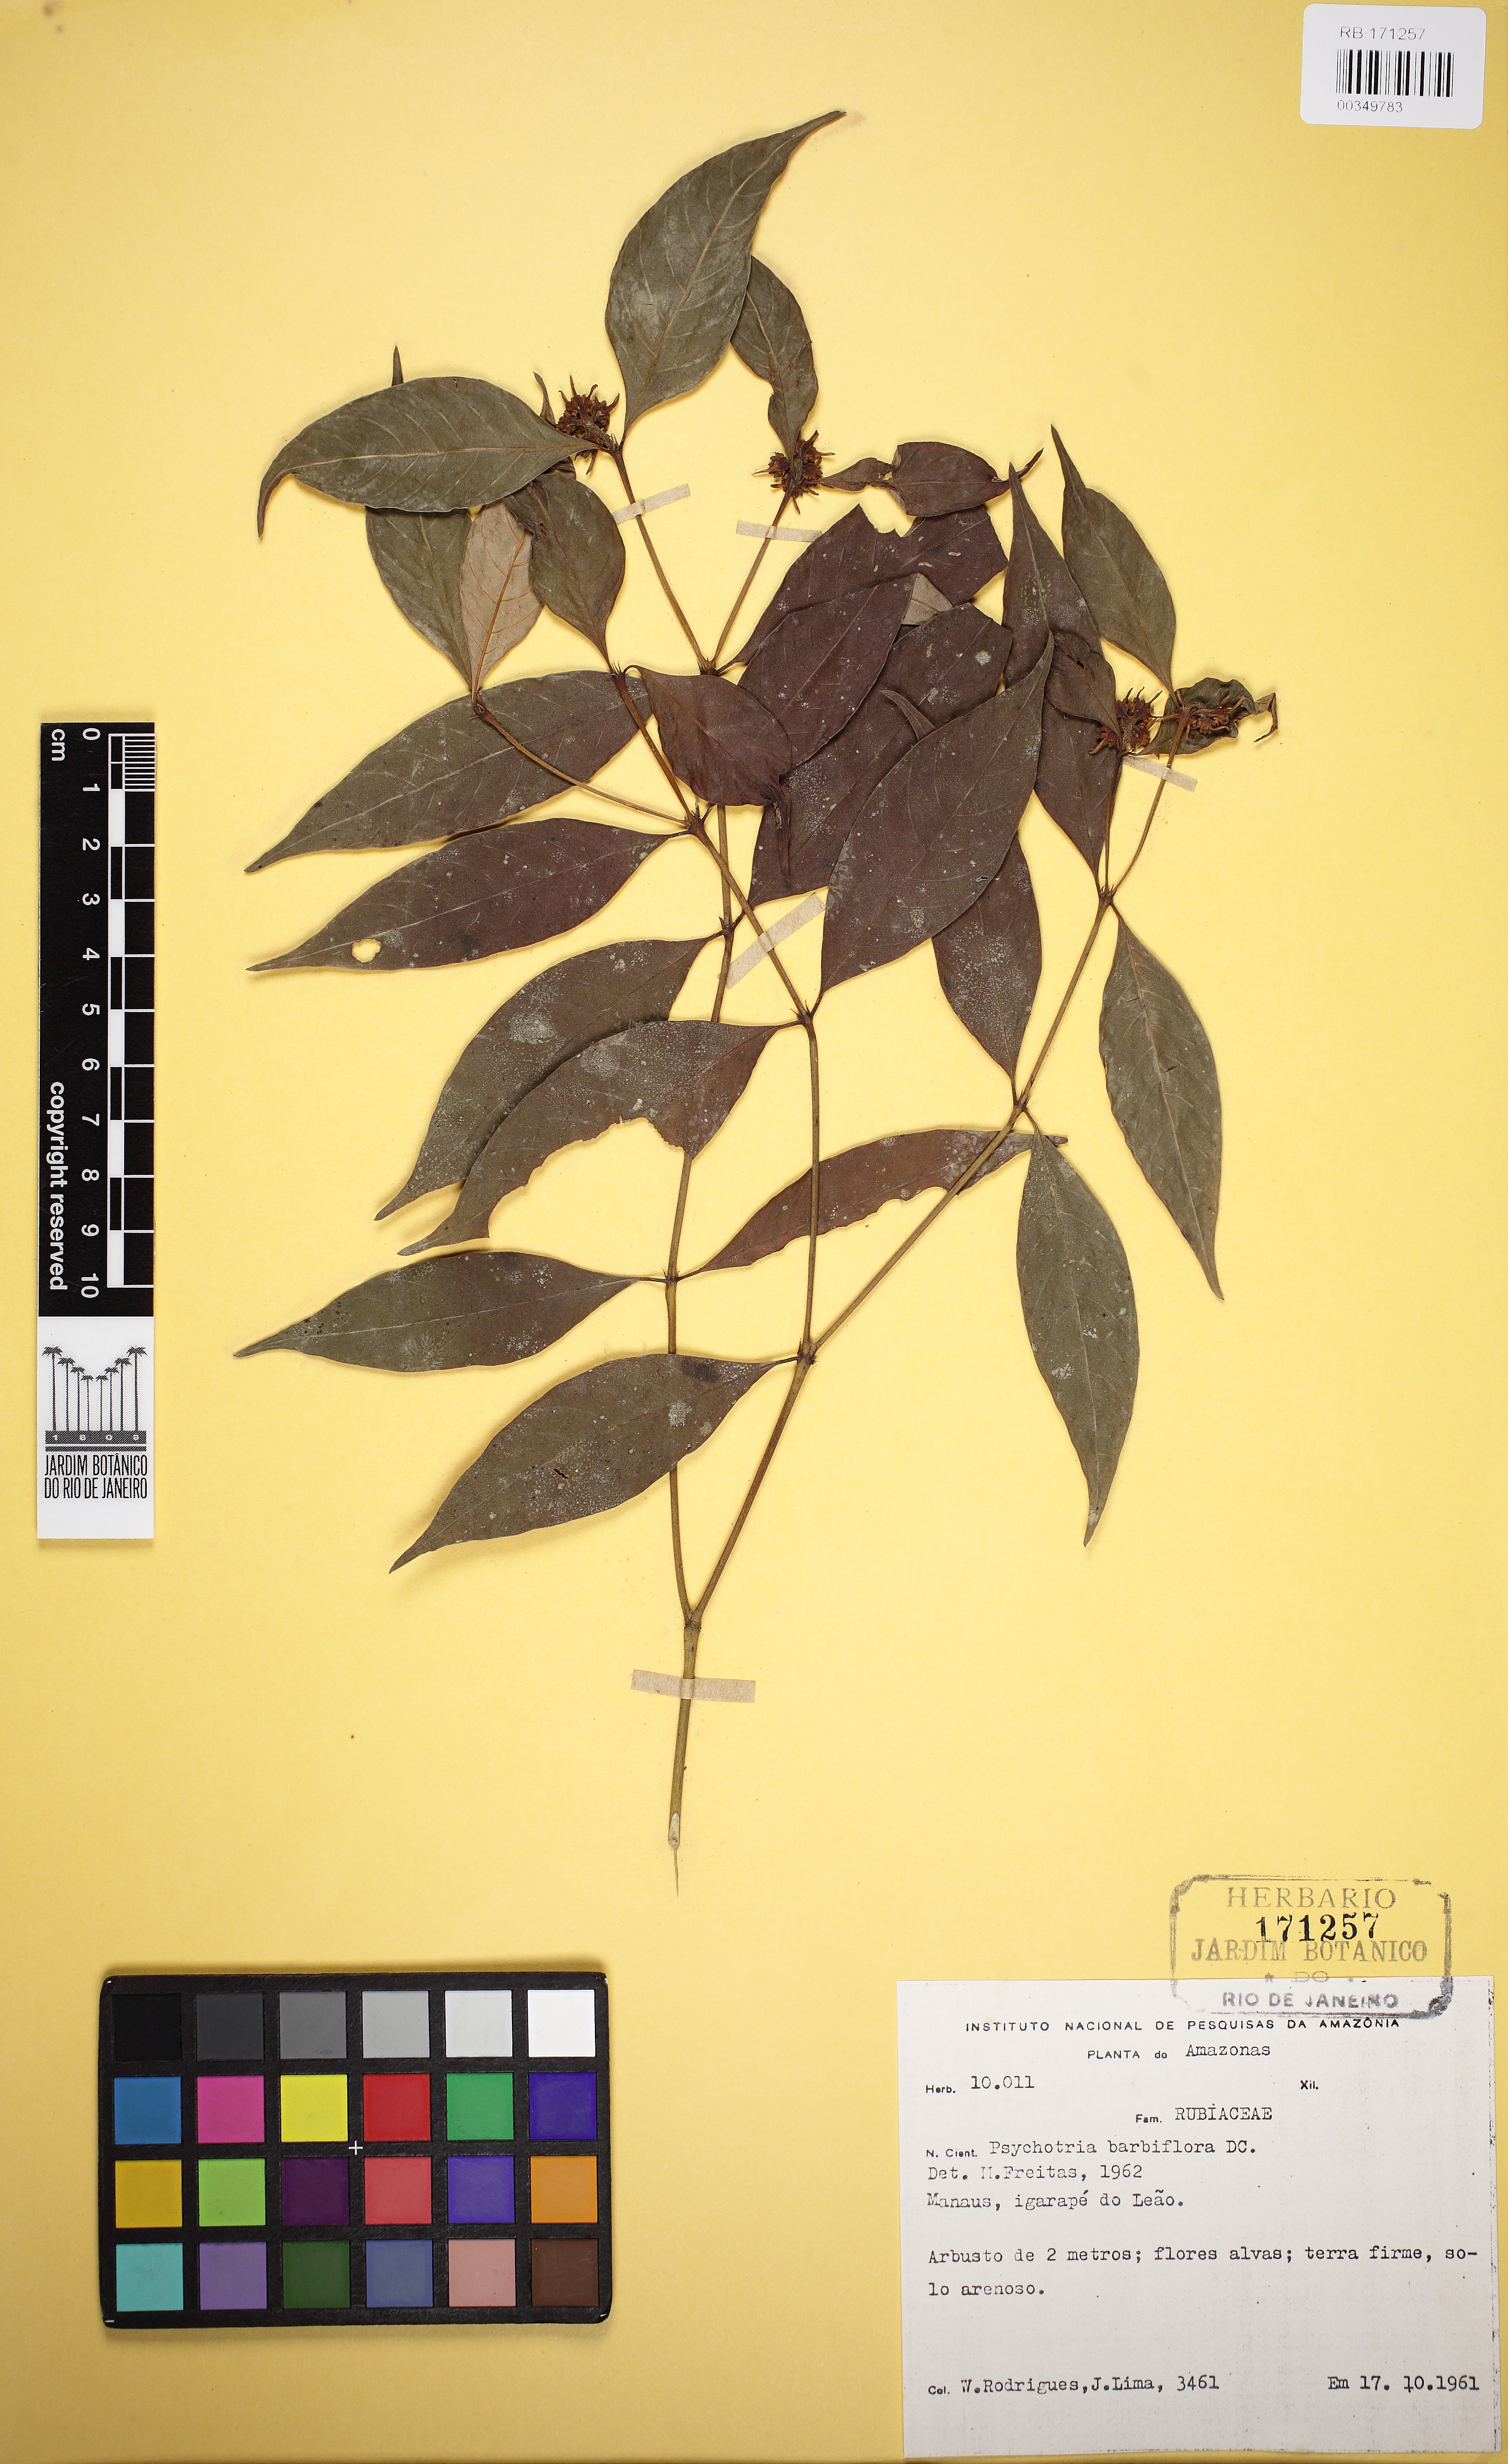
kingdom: Plantae
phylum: Tracheophyta
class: Magnoliopsida
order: Gentianales
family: Rubiaceae
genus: Palicourea
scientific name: Palicourea hoffmannseggiana
